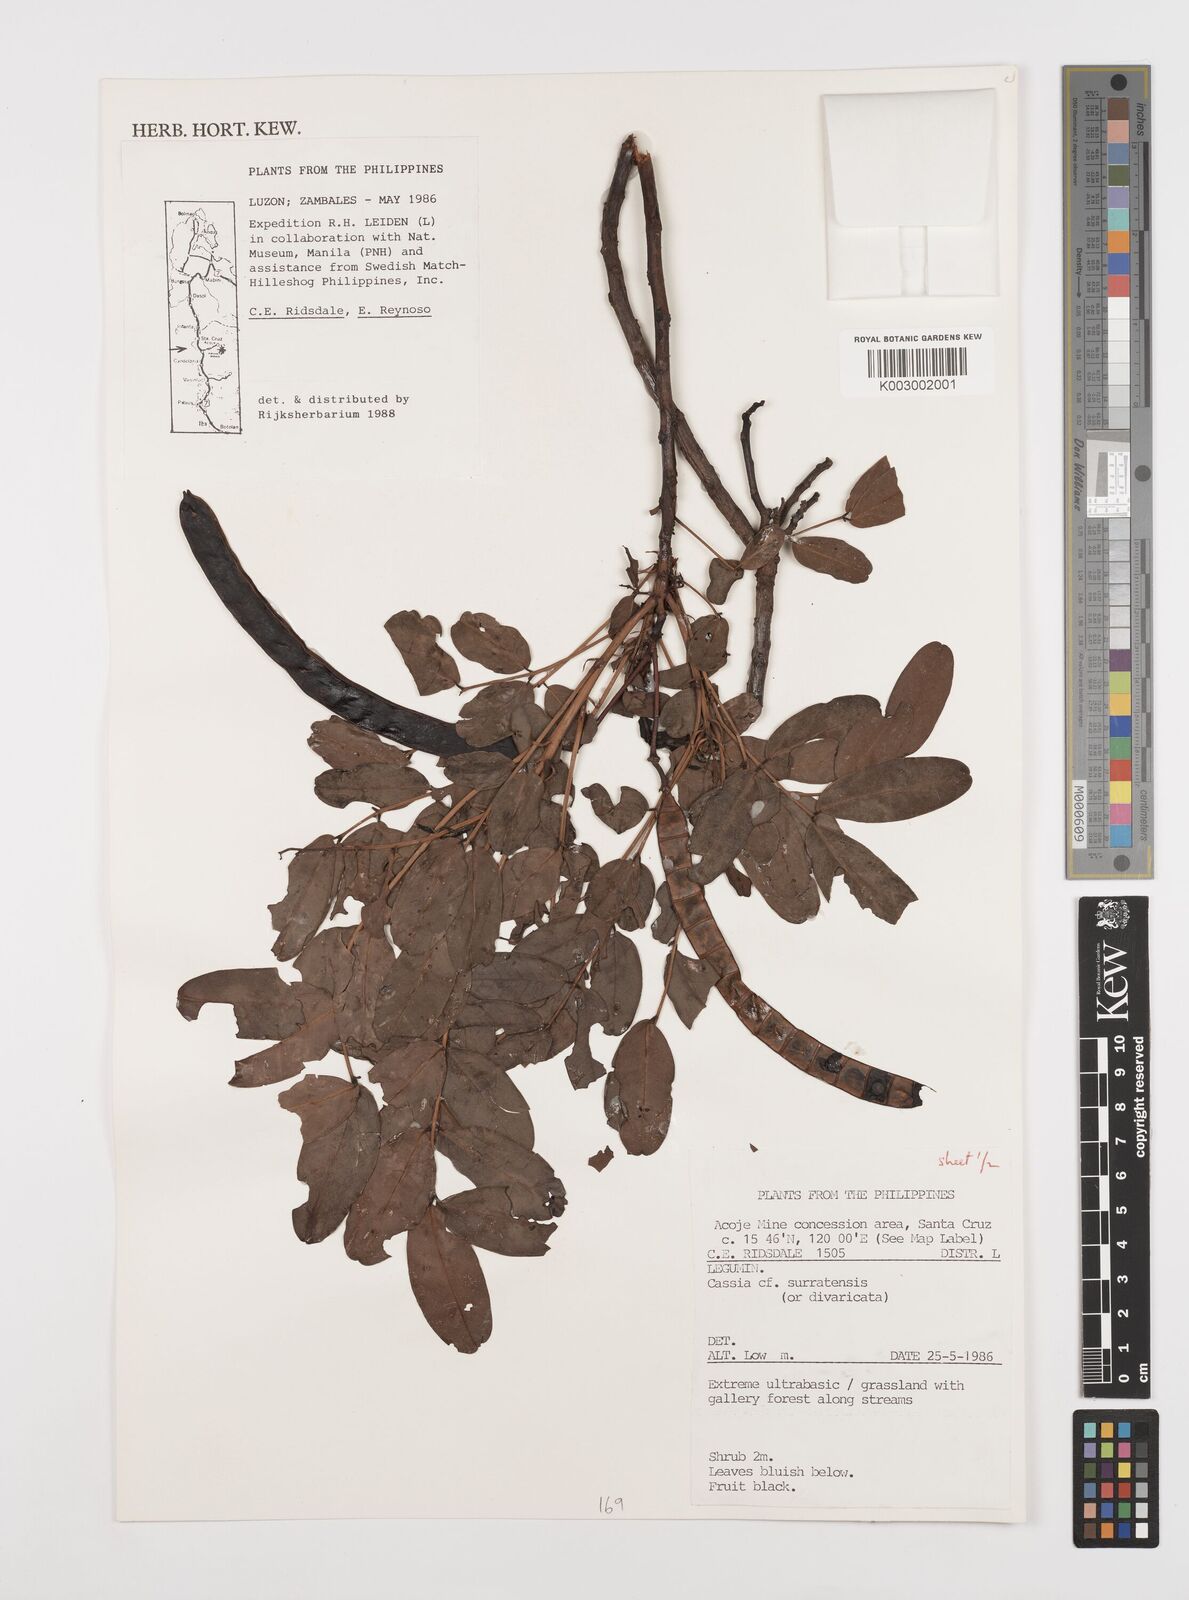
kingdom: Plantae
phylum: Tracheophyta
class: Magnoliopsida
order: Fabales
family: Fabaceae
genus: Senna
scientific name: Senna surattensis
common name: Glossy shower
